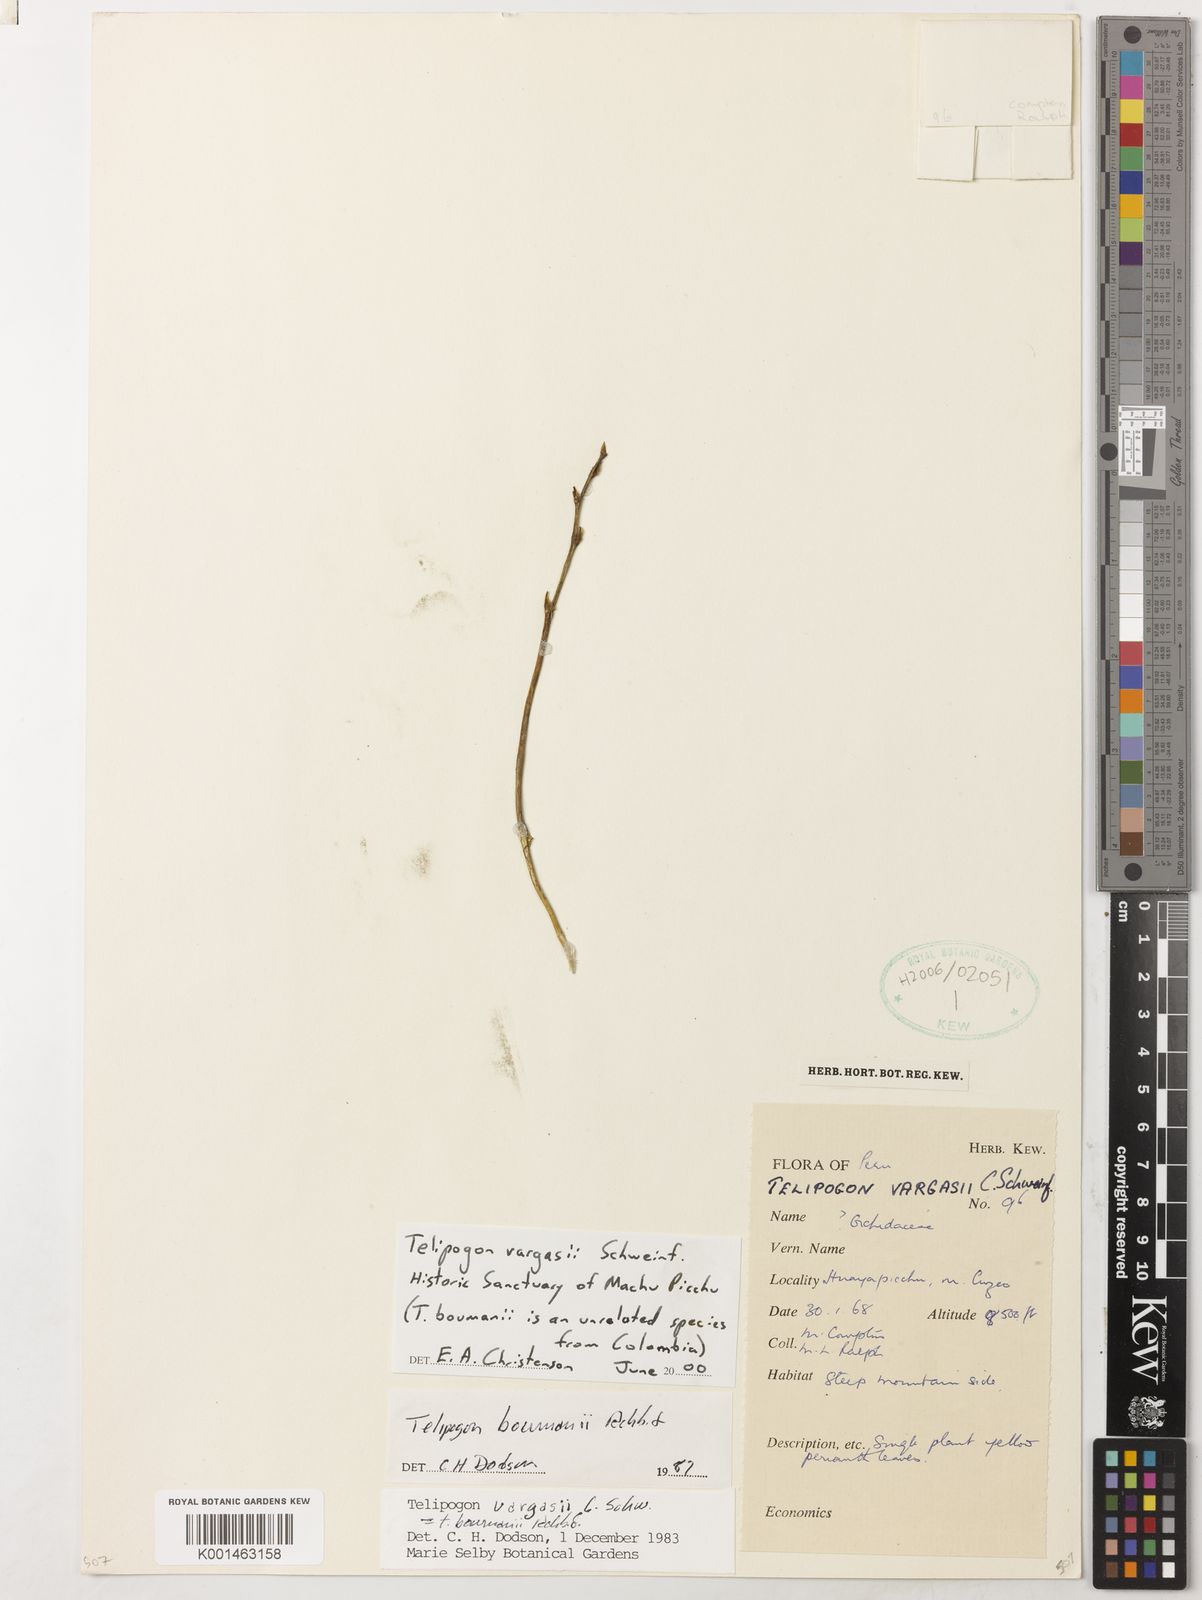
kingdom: Plantae
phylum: Tracheophyta
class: Liliopsida
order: Asparagales
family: Orchidaceae
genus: Telipogon
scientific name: Telipogon bowmanii
